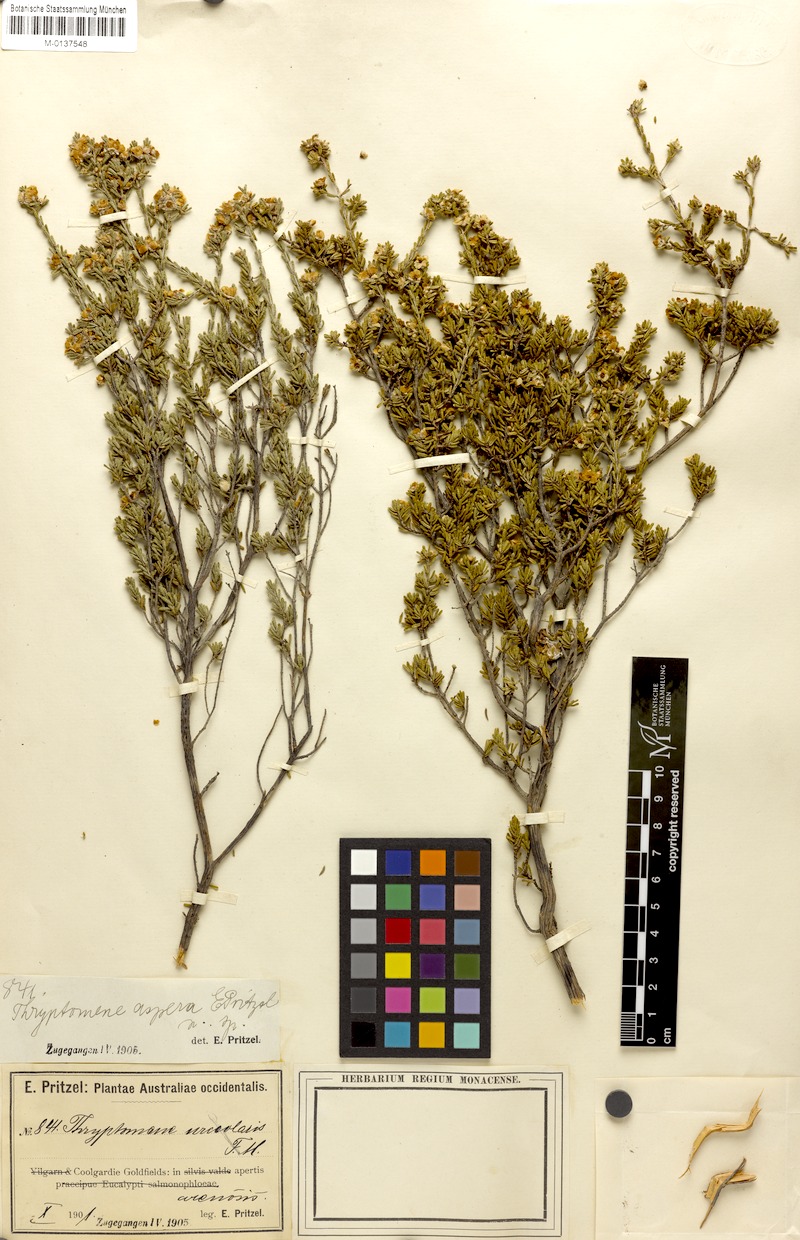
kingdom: Plantae
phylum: Tracheophyta
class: Magnoliopsida
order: Myrtales
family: Myrtaceae
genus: Aluta
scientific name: Aluta aspera
